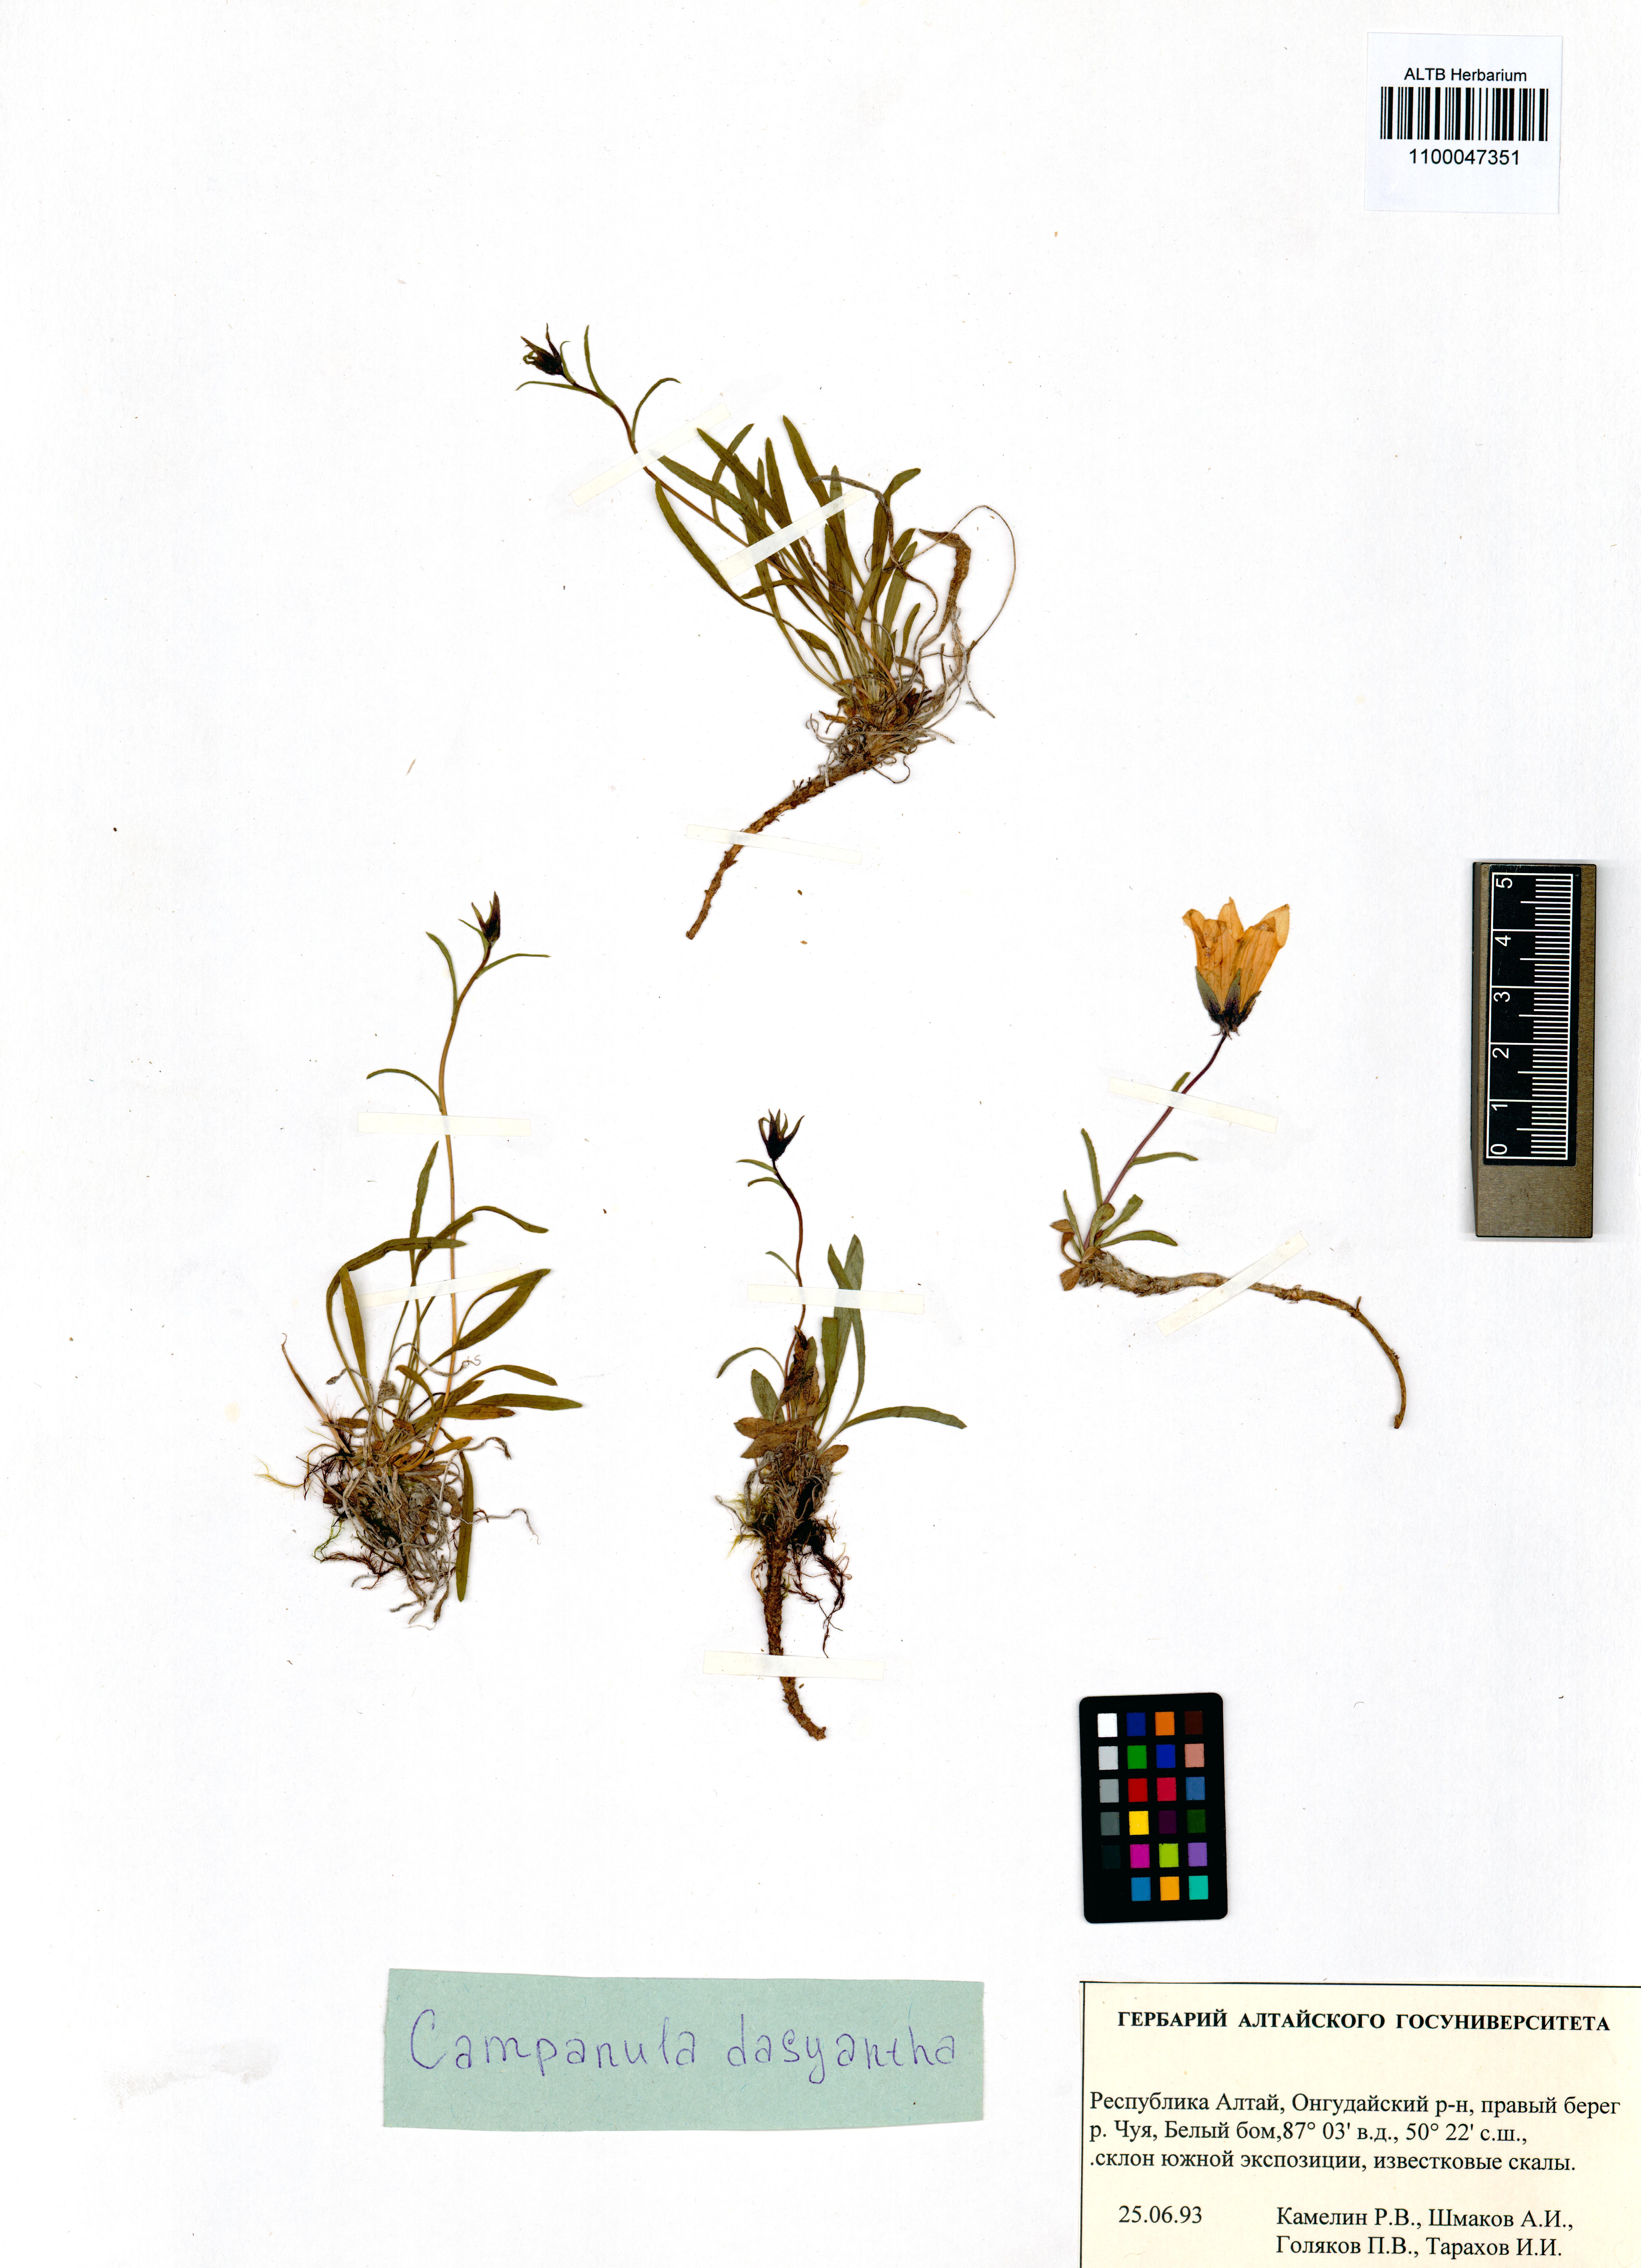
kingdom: Plantae
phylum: Tracheophyta
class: Magnoliopsida
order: Asterales
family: Campanulaceae
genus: Campanula
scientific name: Campanula dasyantha
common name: Hairyflower bellflower
